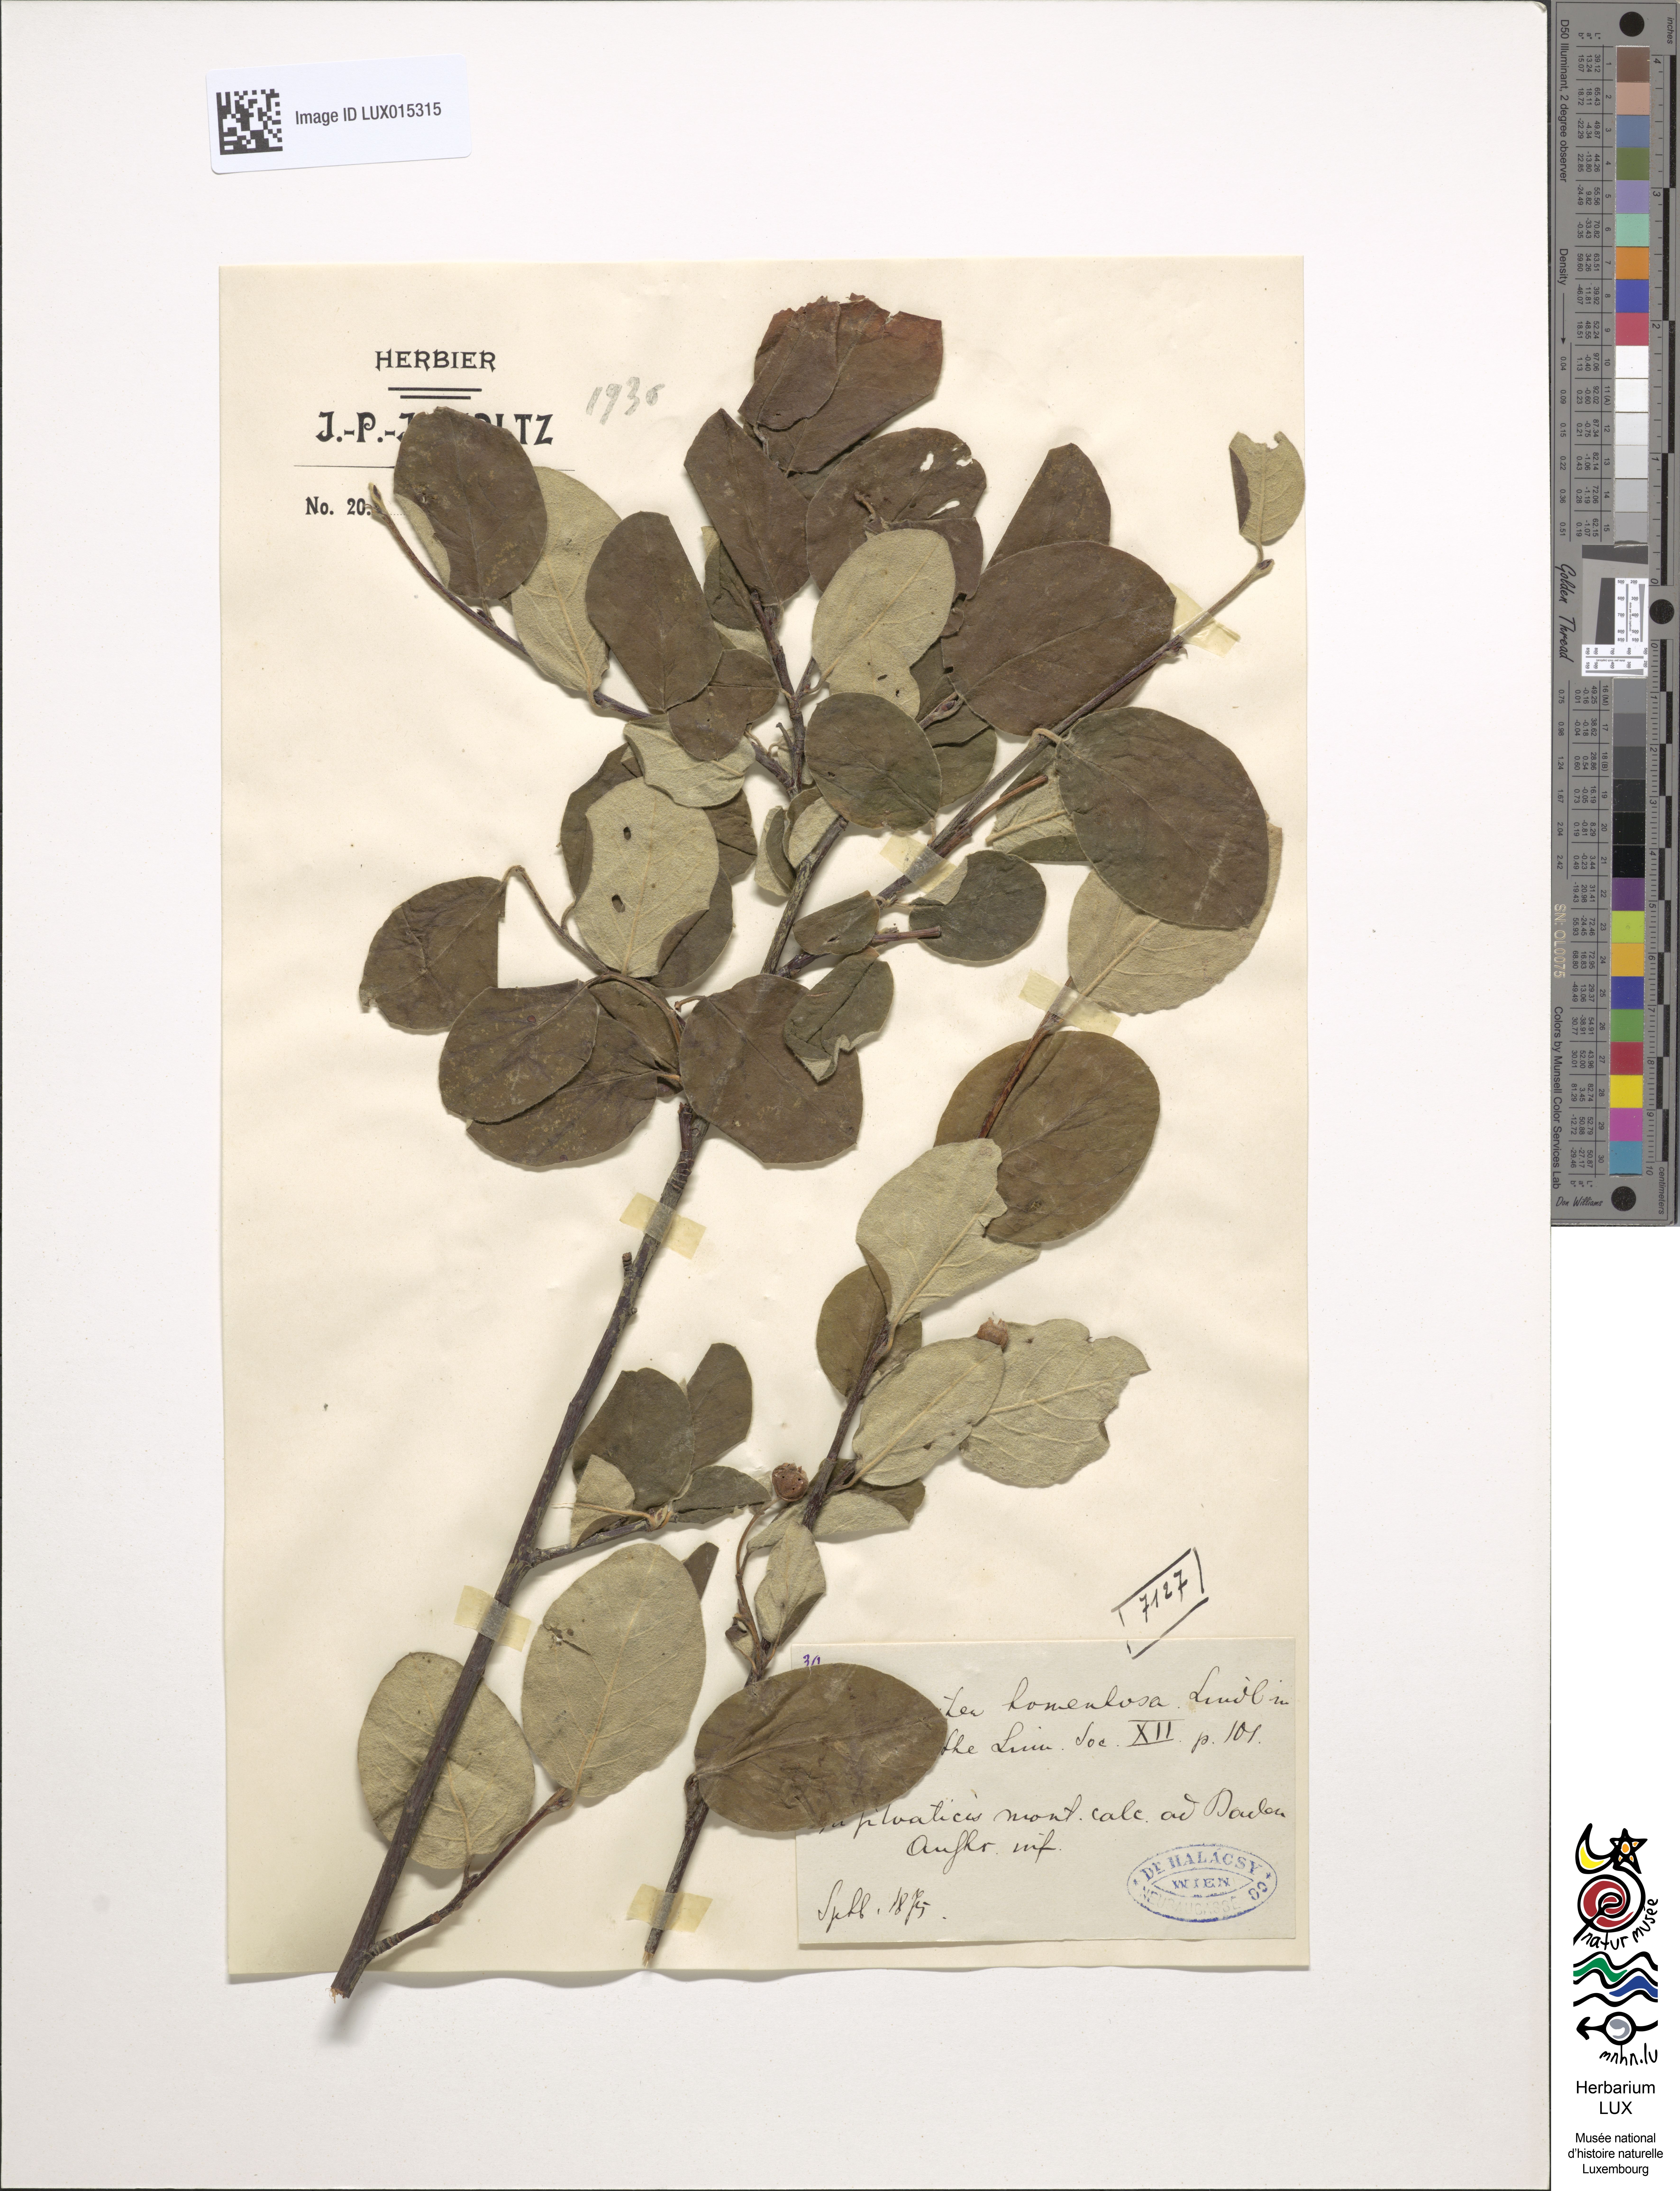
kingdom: Plantae
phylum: Tracheophyta
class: Magnoliopsida
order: Rosales
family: Rosaceae
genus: Cotoneaster
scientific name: Cotoneaster tomentosus
